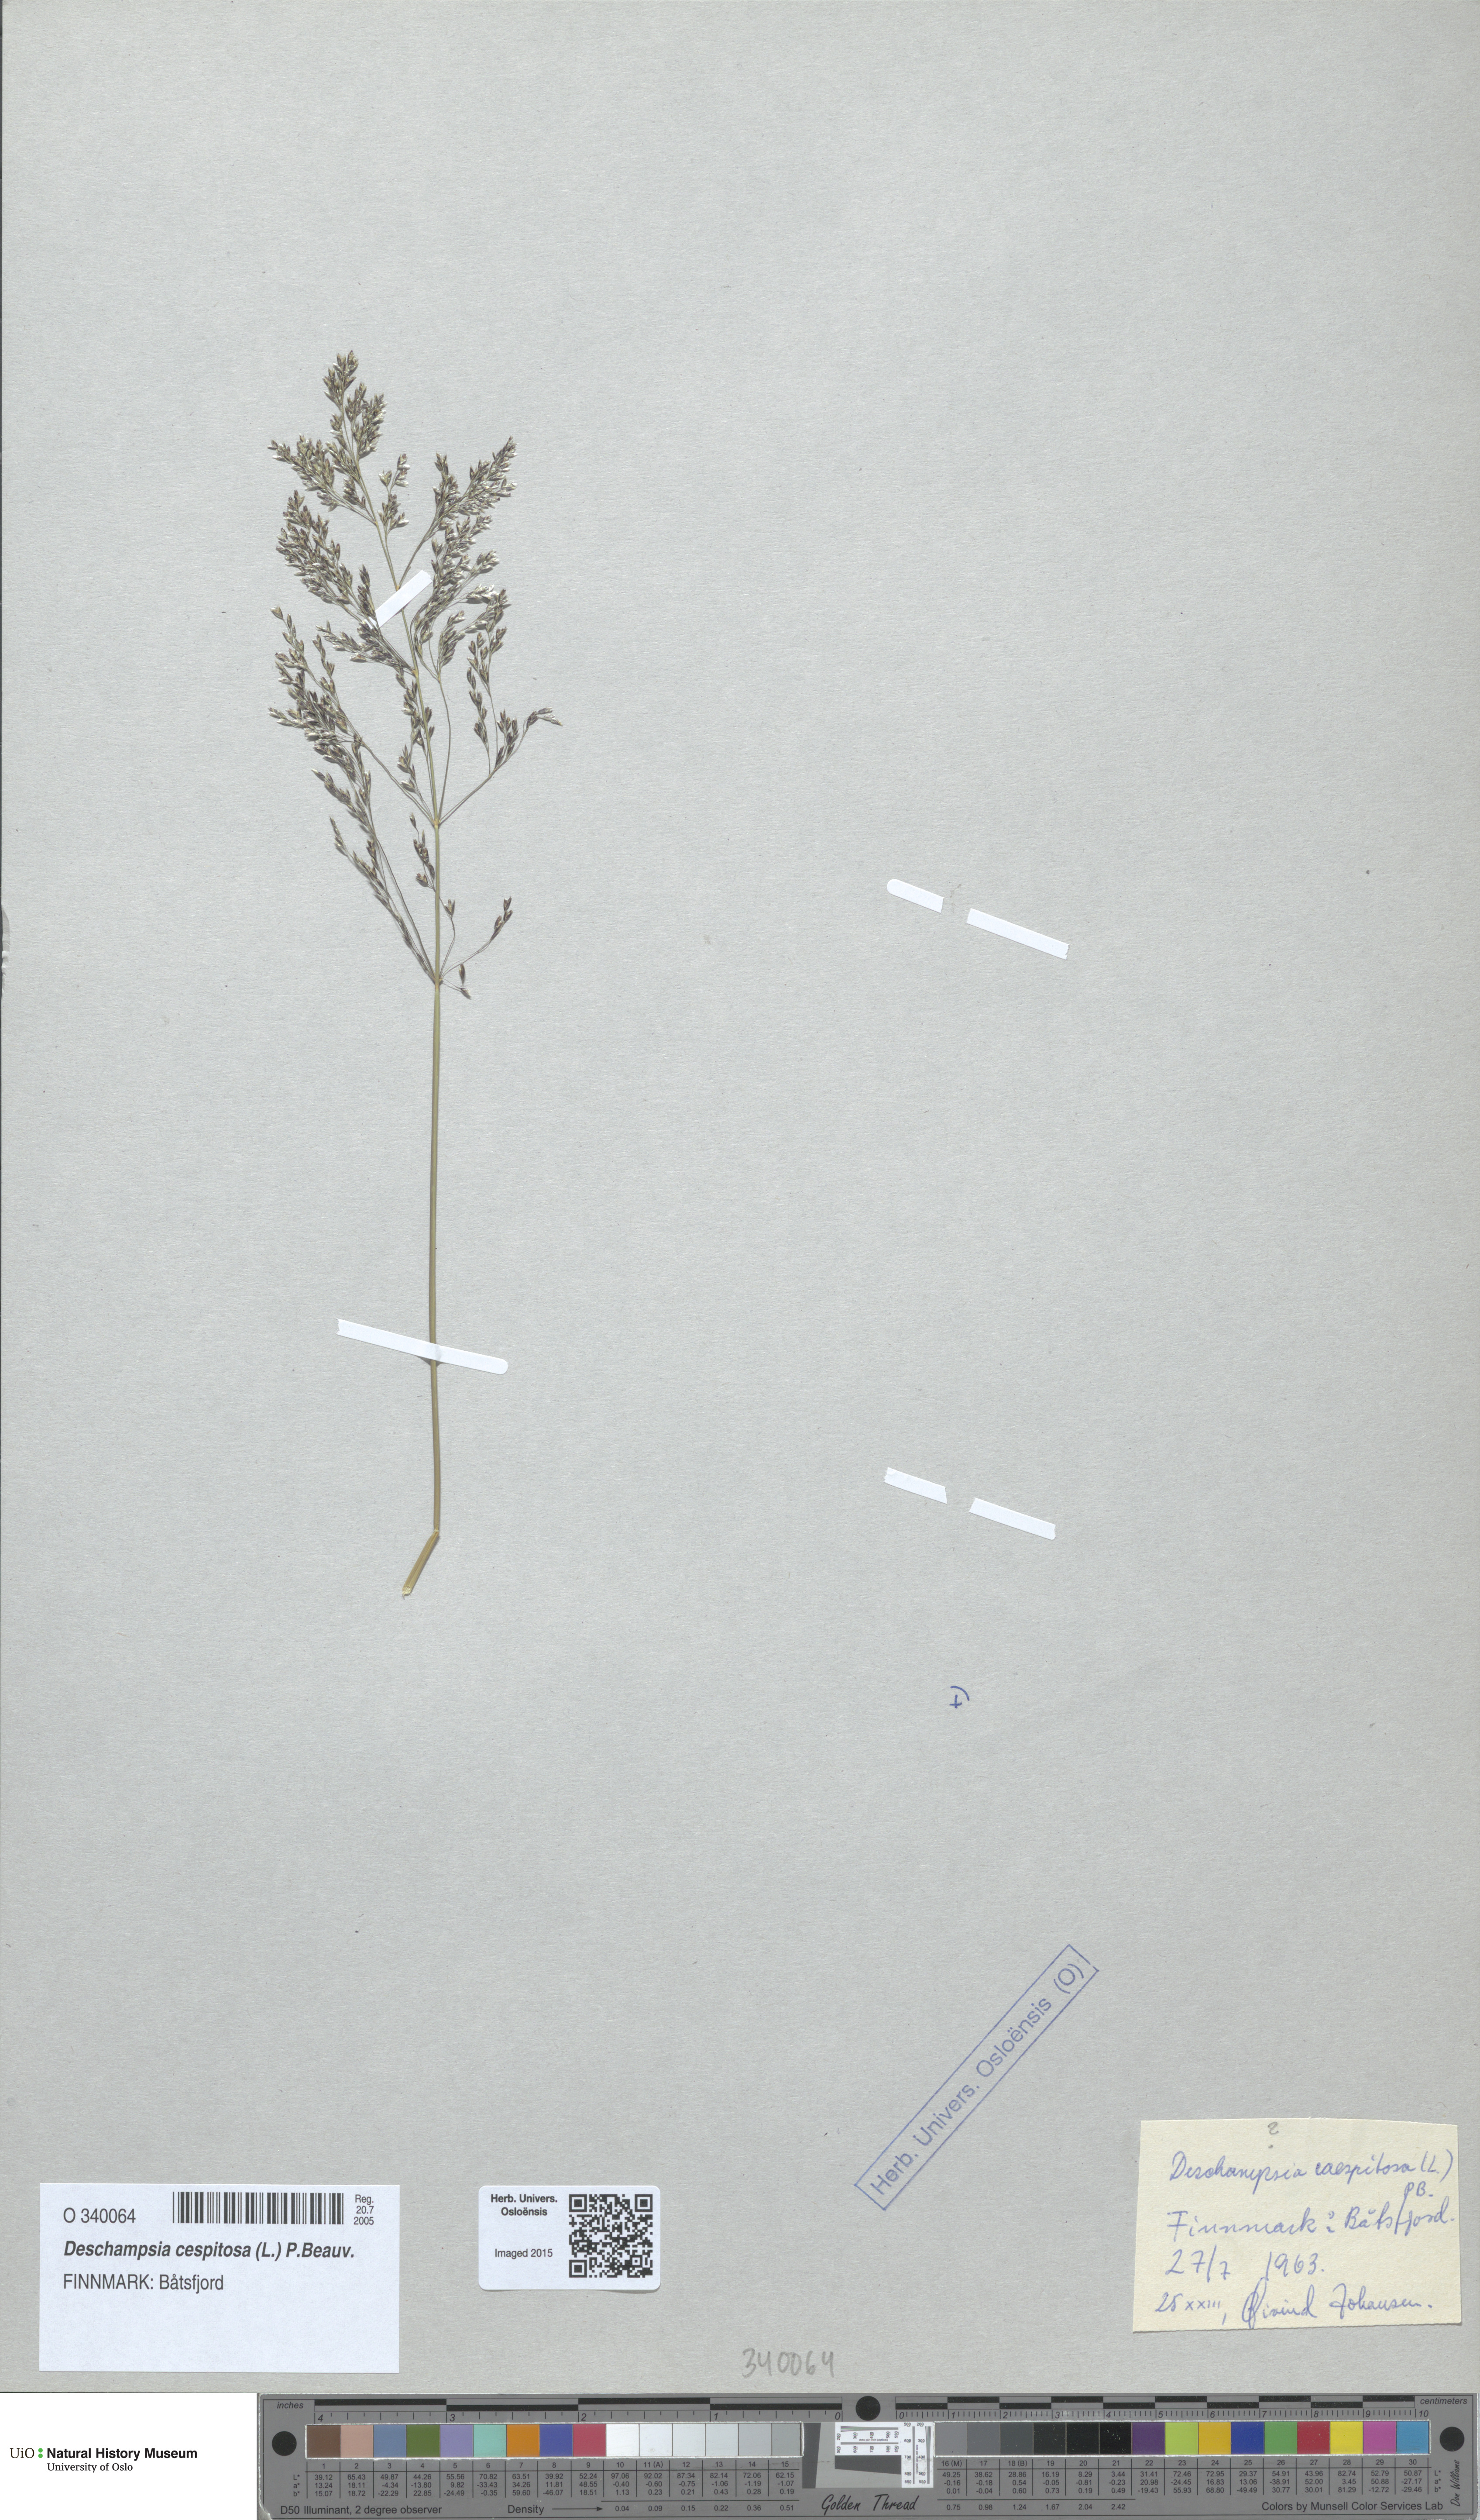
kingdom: Plantae
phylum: Tracheophyta
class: Liliopsida
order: Poales
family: Poaceae
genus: Deschampsia
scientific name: Deschampsia cespitosa
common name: Tufted hair-grass
